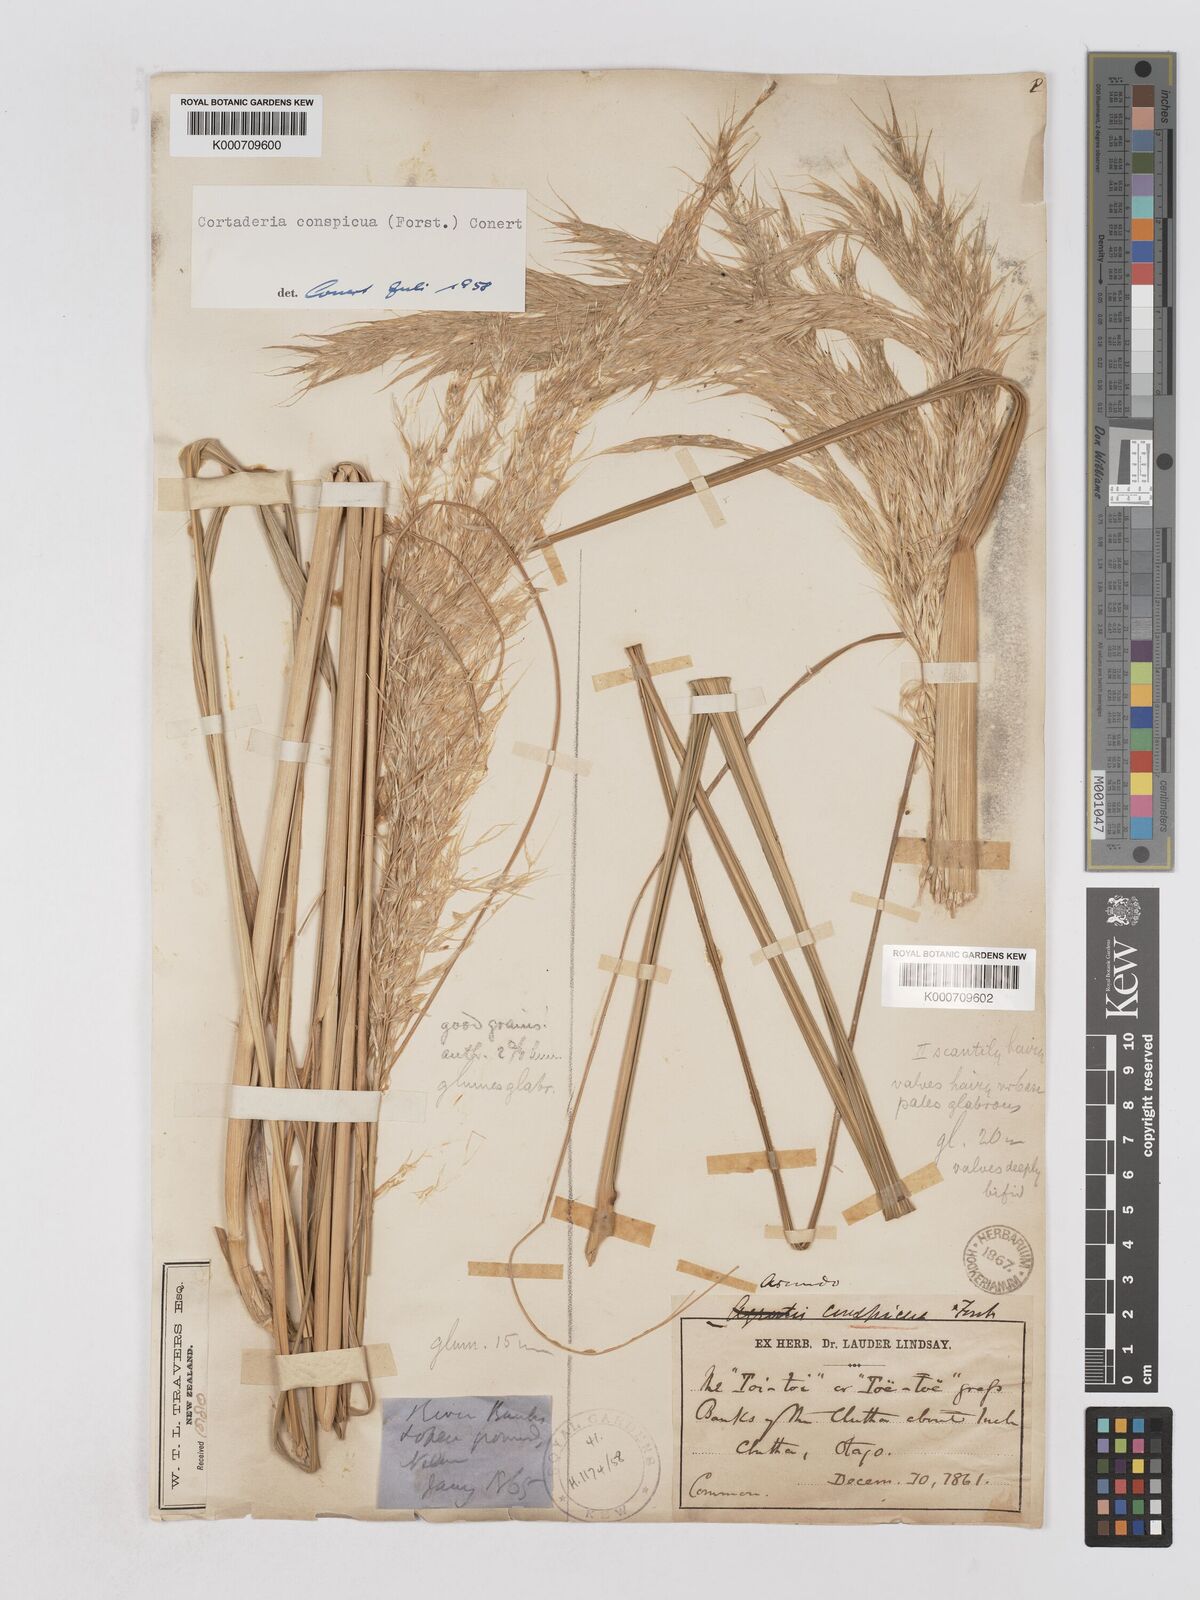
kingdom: Plantae
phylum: Tracheophyta
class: Liliopsida
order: Poales
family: Poaceae
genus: Austroderia
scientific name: Austroderia richardii
